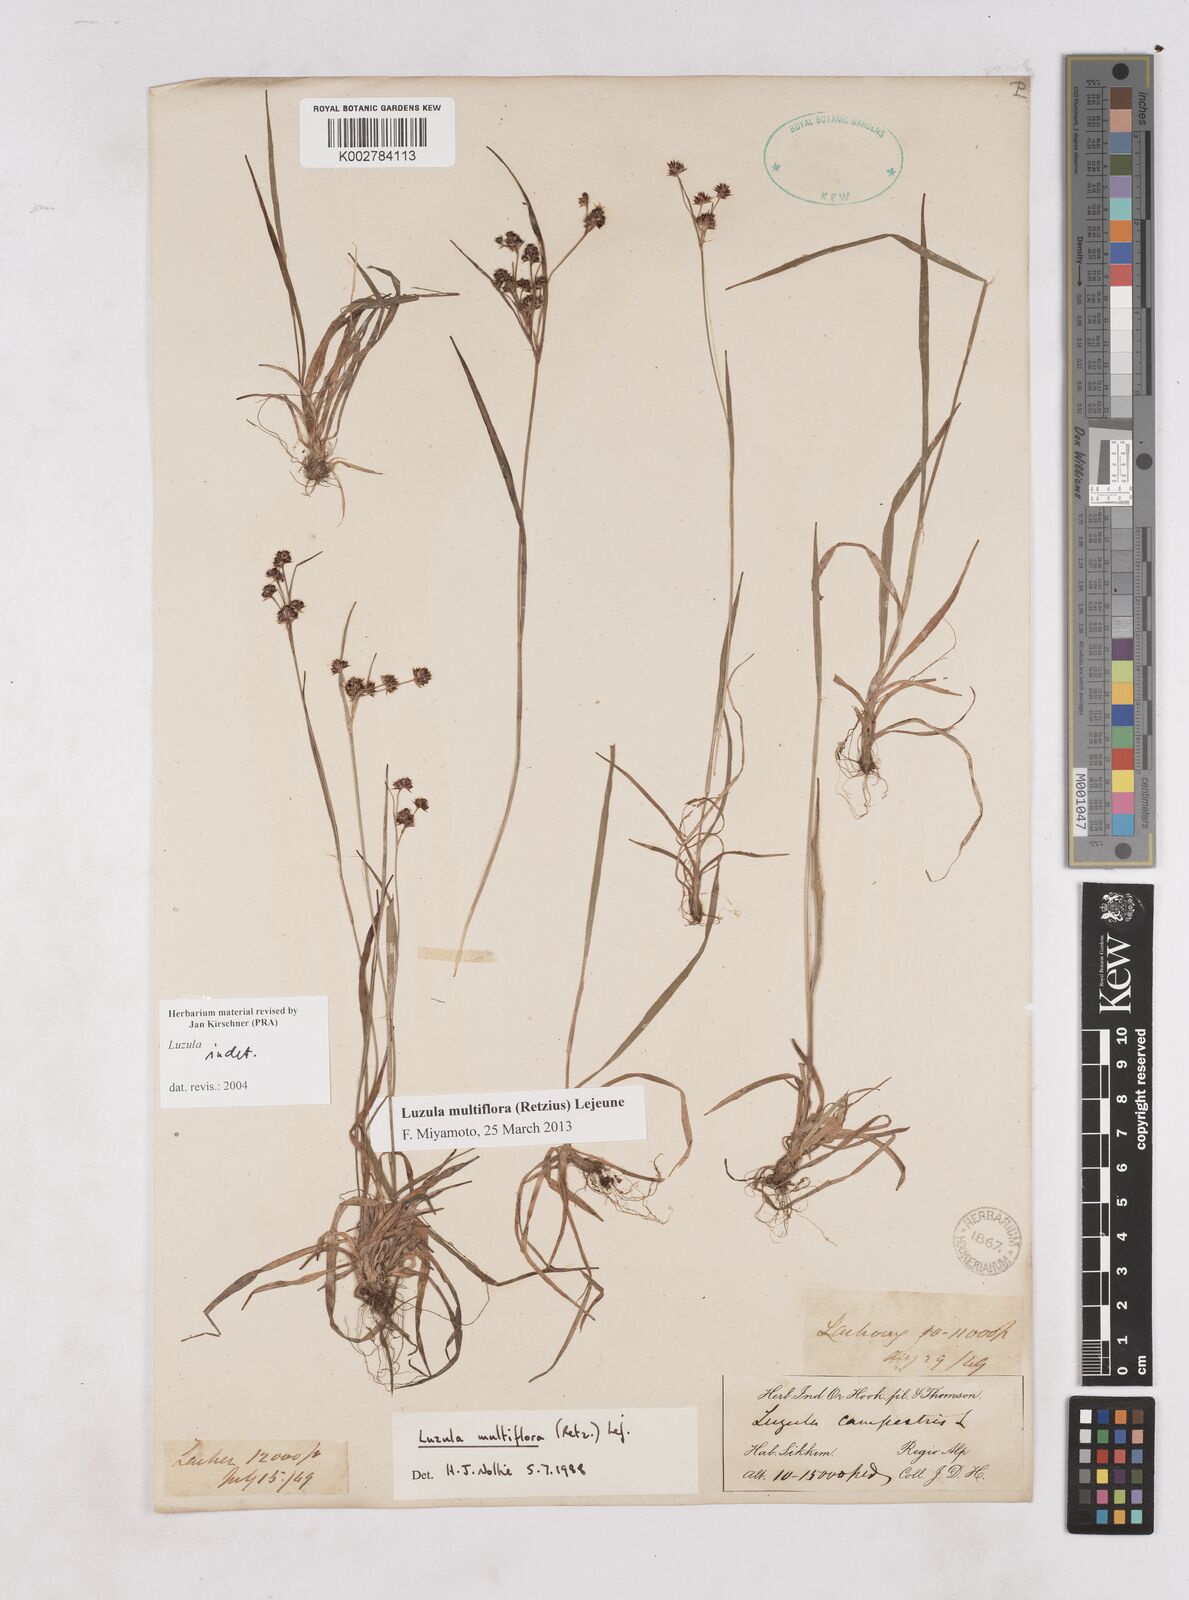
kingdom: Plantae
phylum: Tracheophyta
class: Liliopsida
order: Poales
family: Juncaceae
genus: Luzula
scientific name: Luzula
